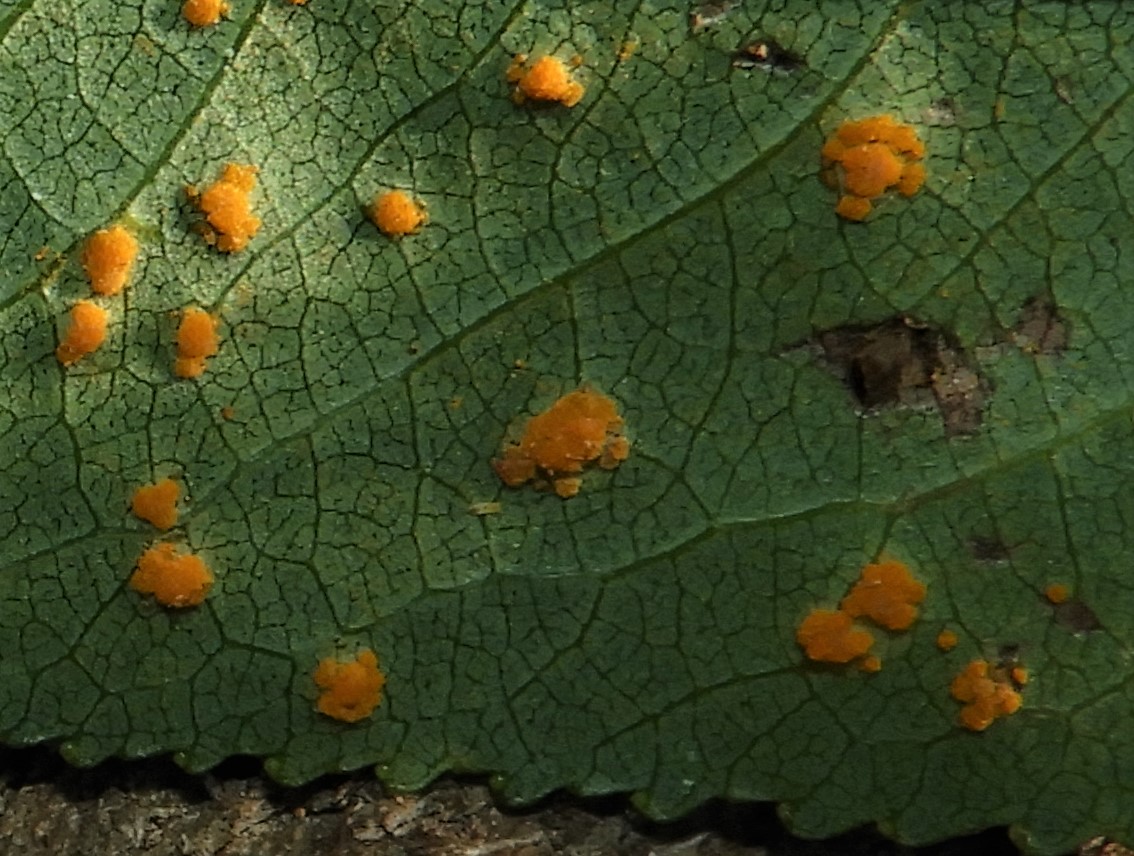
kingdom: Fungi
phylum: Basidiomycota
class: Pucciniomycetes
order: Pucciniales
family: Melampsoraceae
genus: Melampsora
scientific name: Melampsora
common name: skorperust
